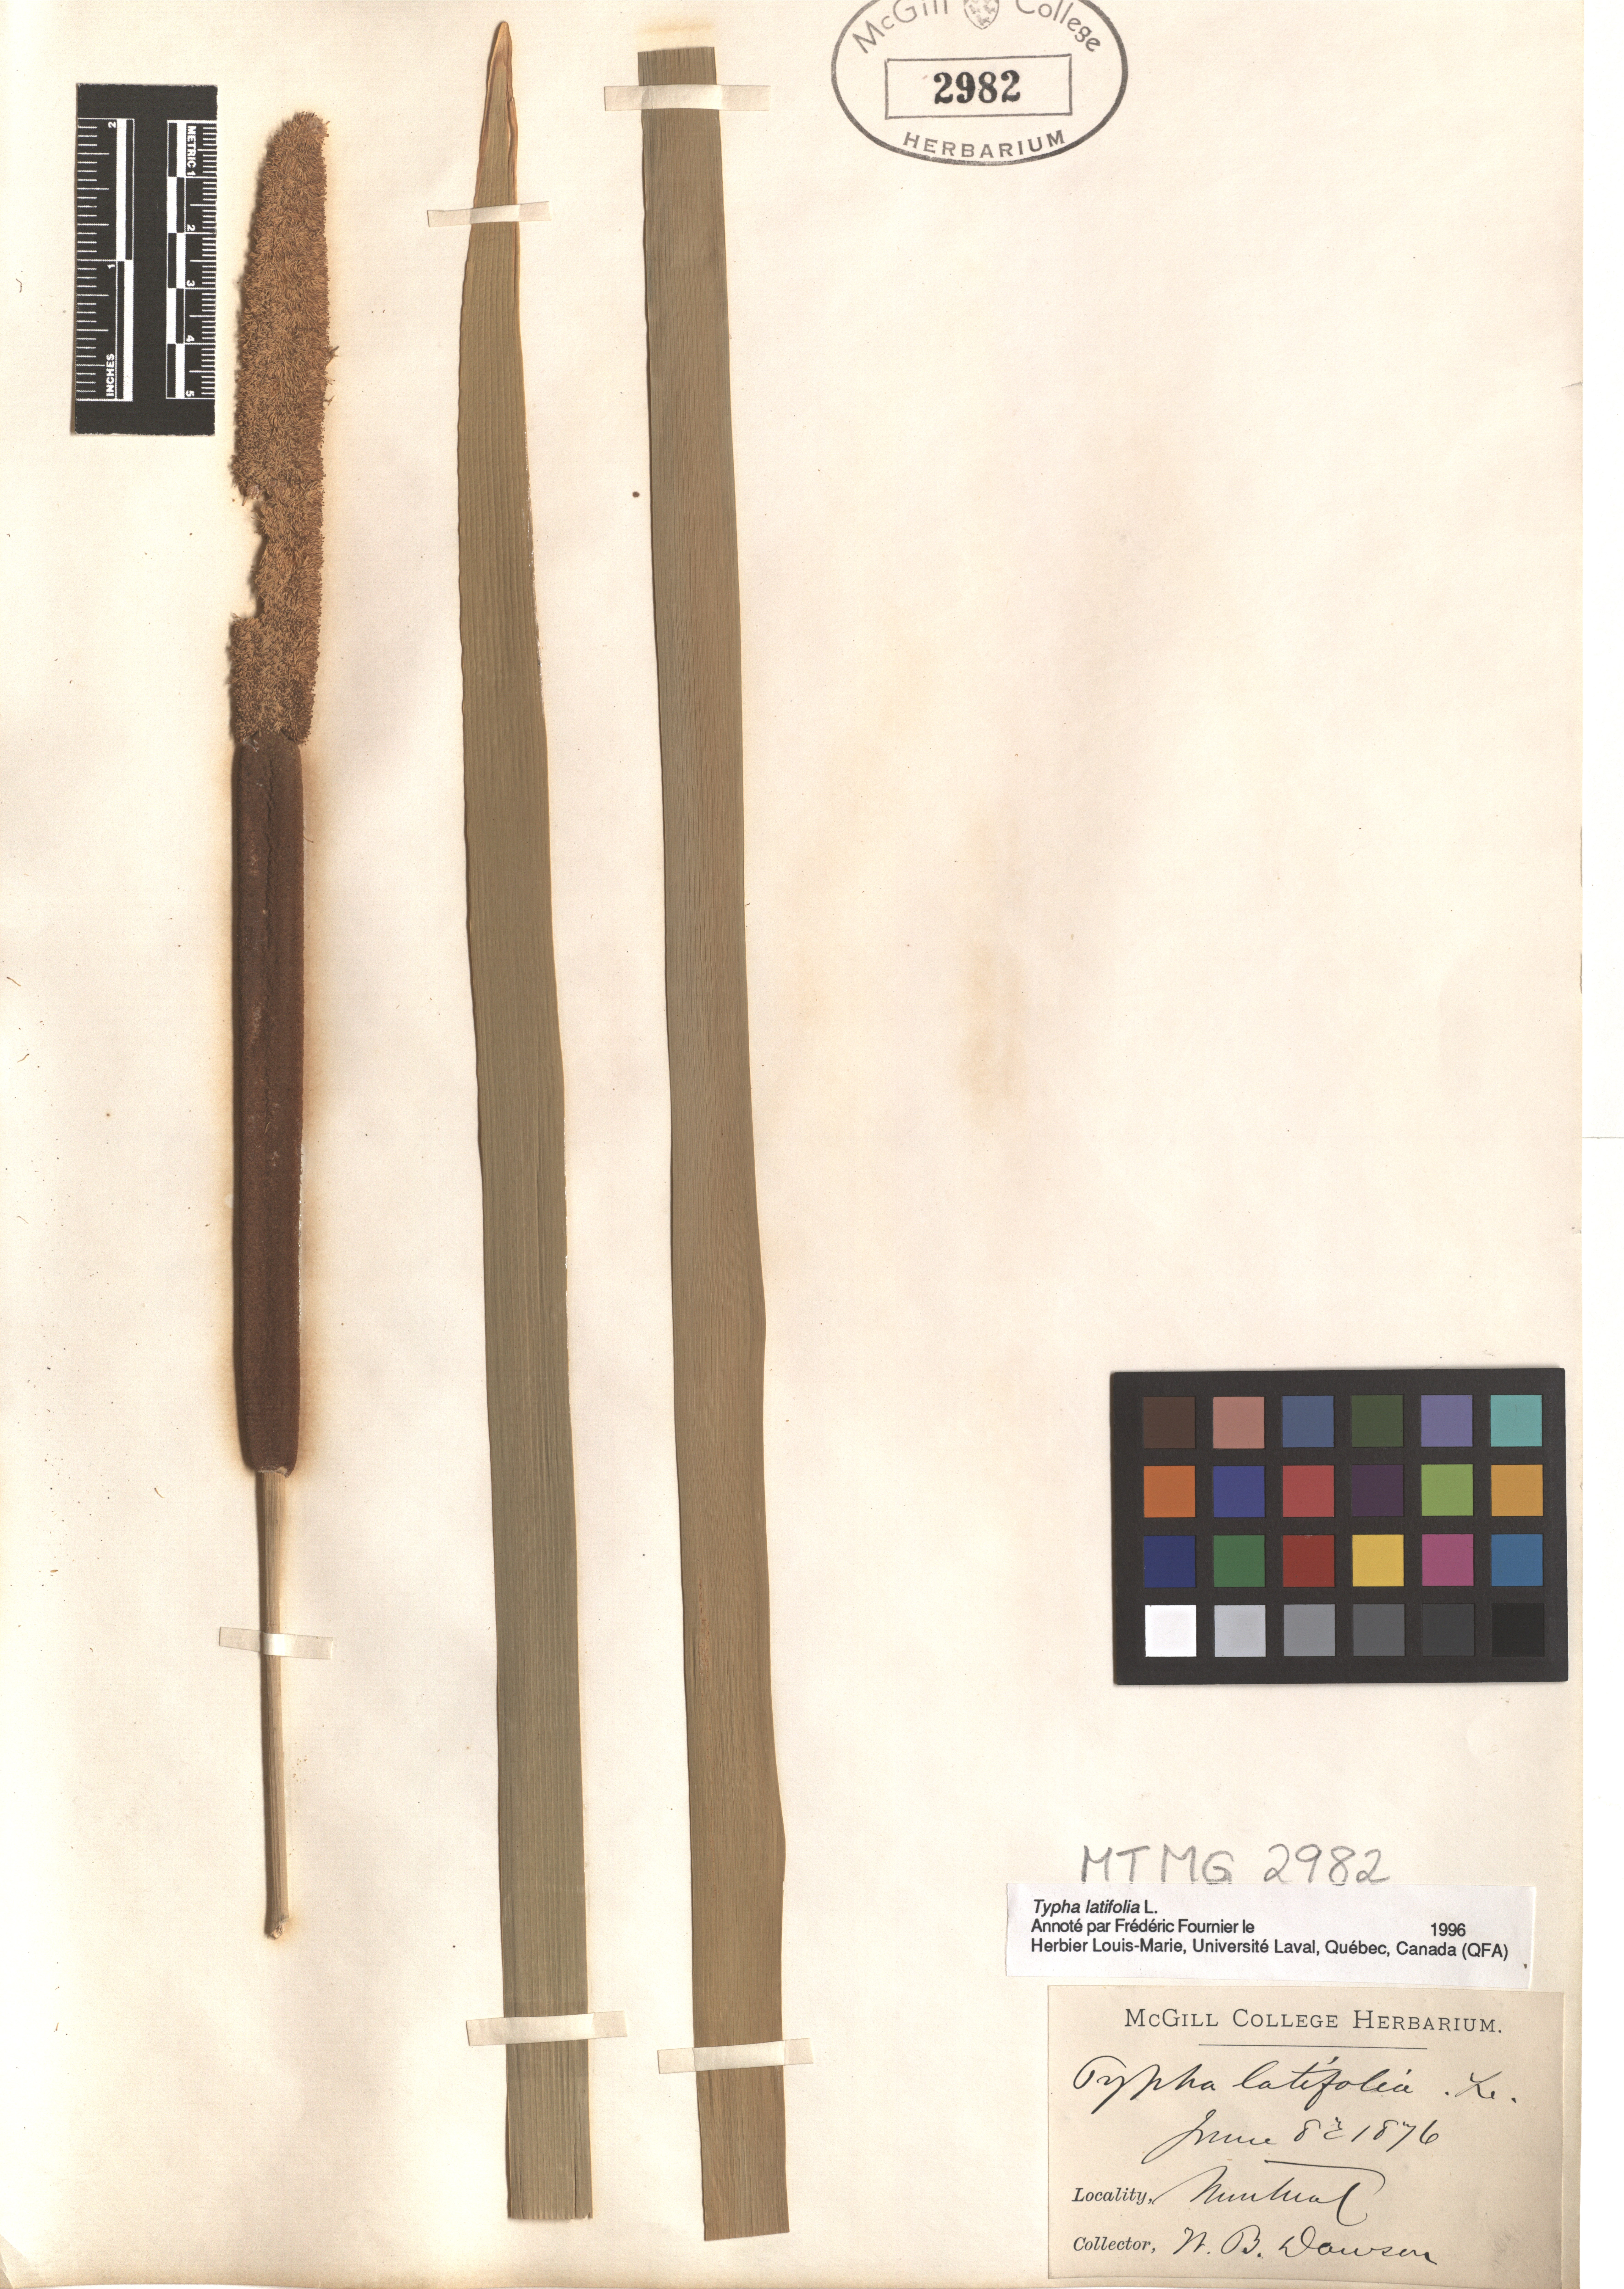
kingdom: Plantae
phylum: Tracheophyta
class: Liliopsida
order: Poales
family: Typhaceae
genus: Typha
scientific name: Typha latifolia
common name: Broadleaf cattail
